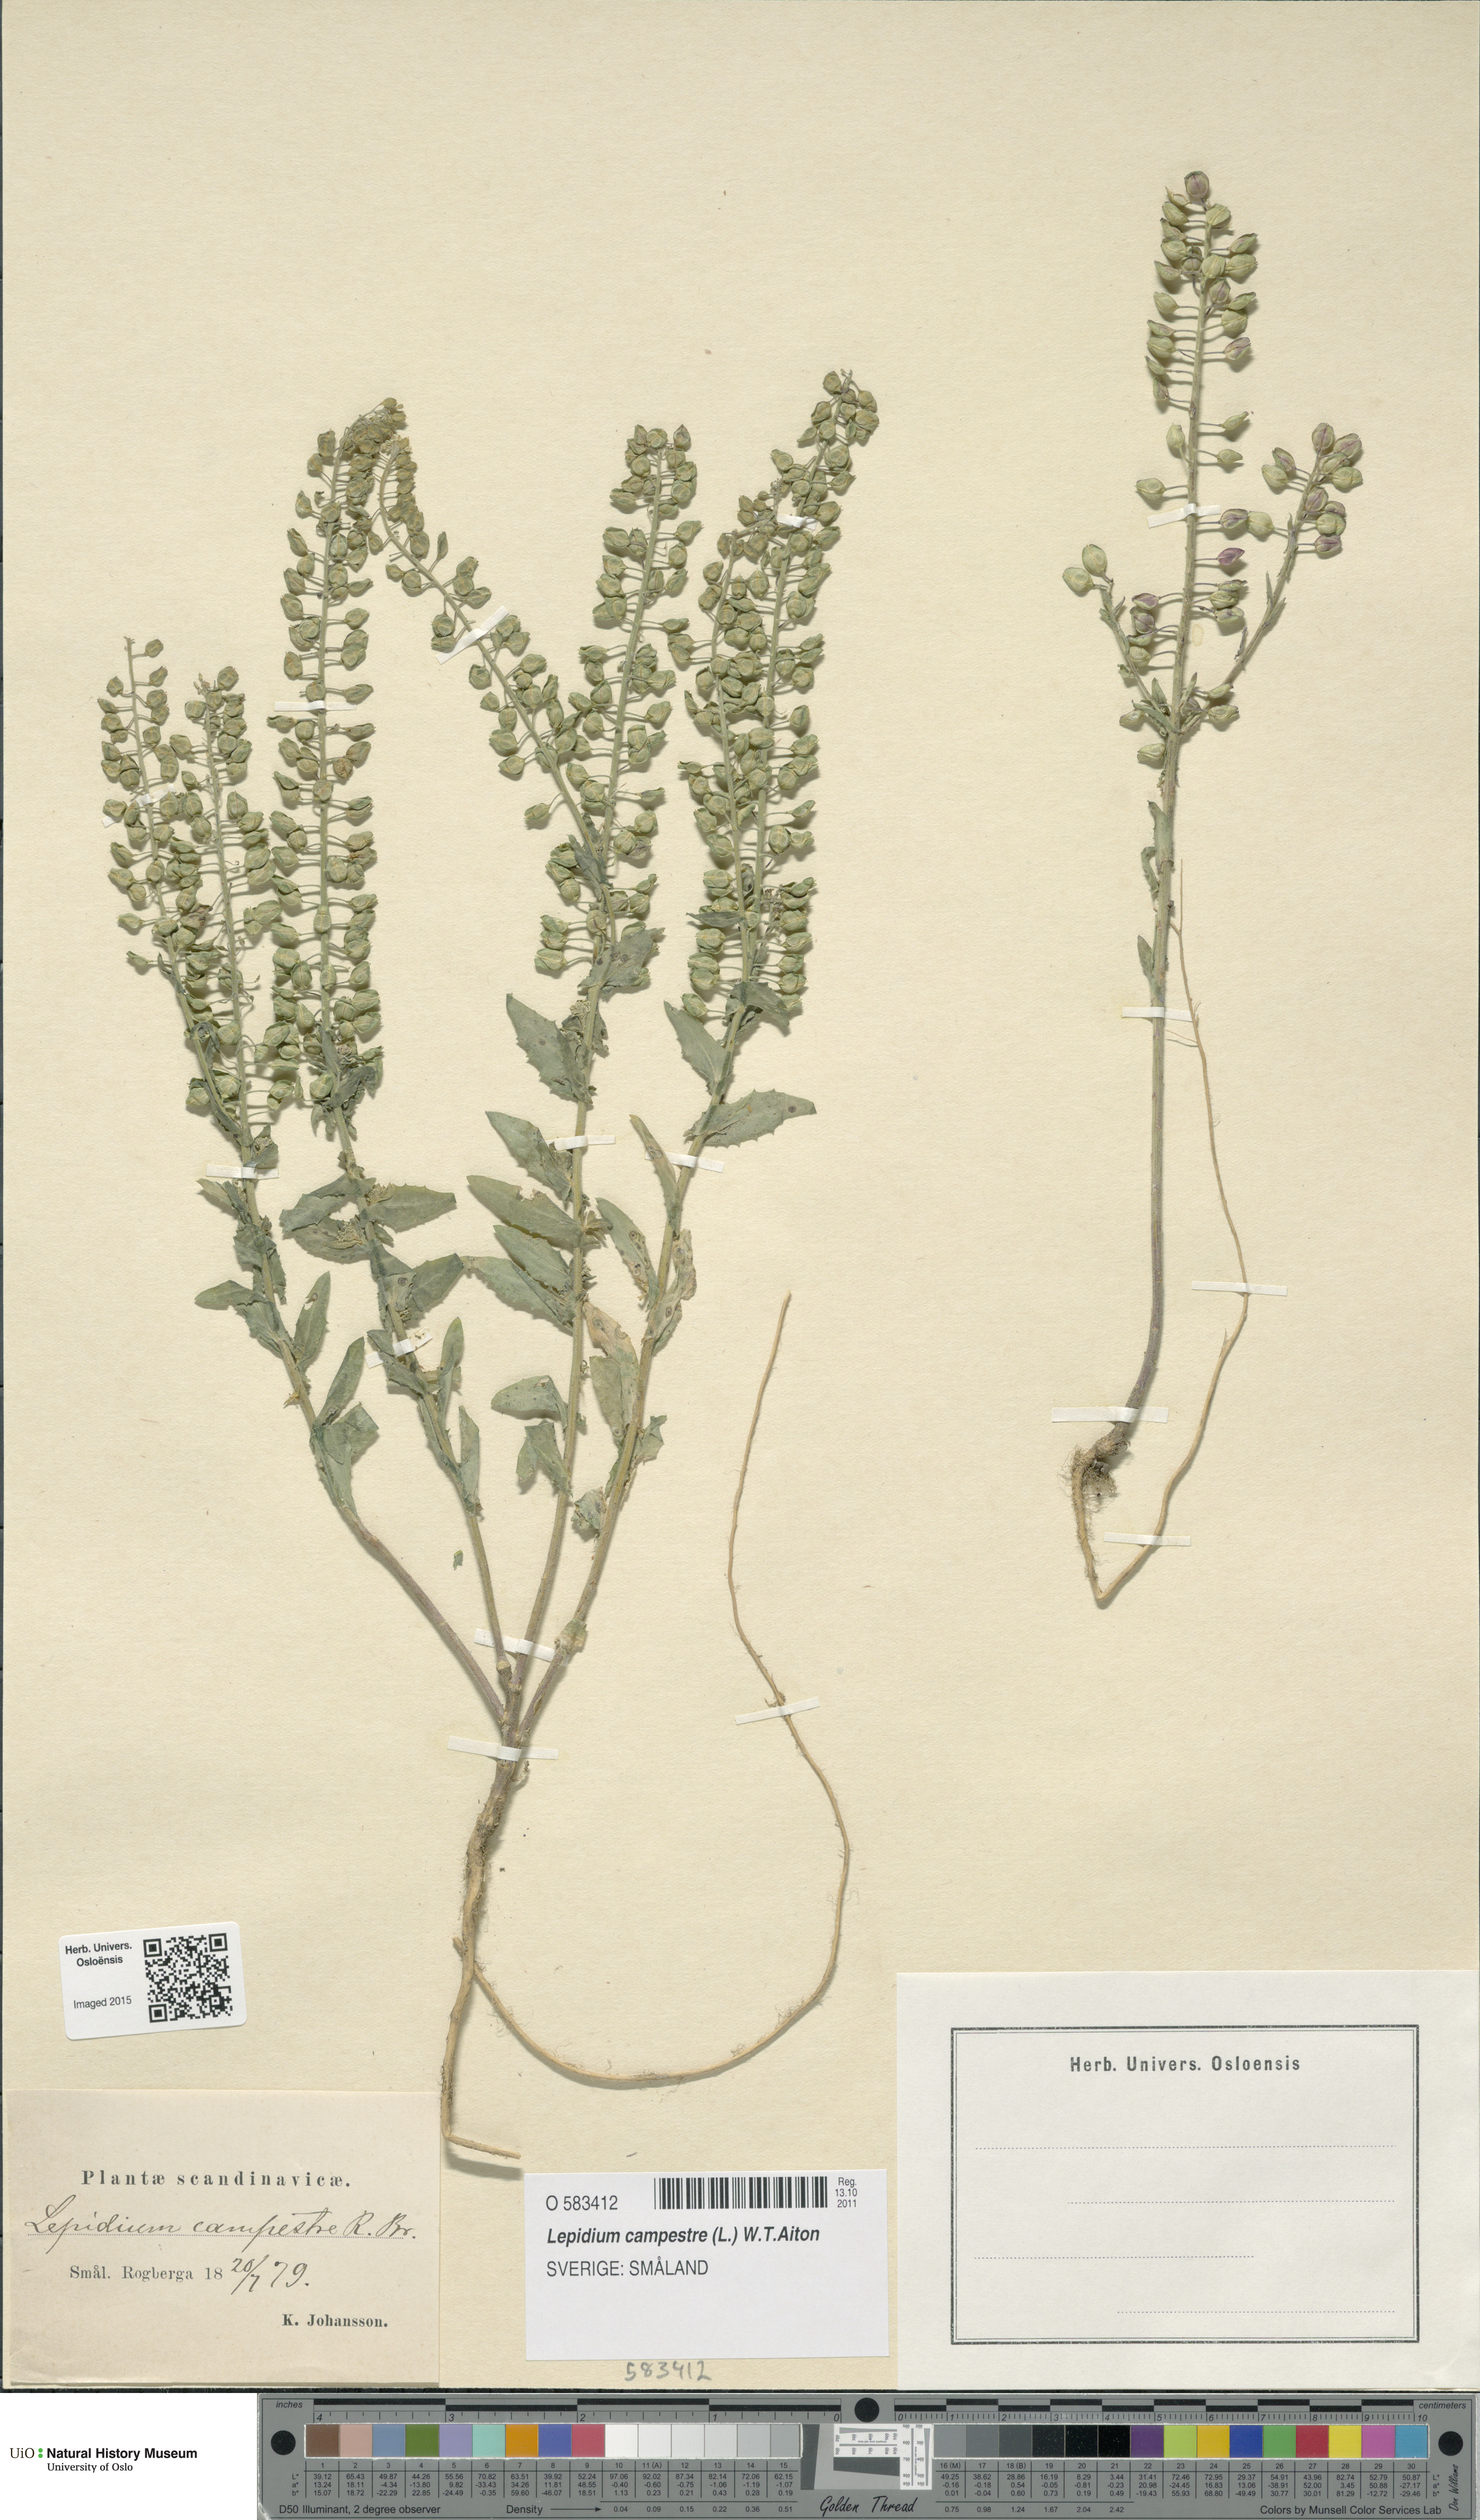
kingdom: Plantae
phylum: Tracheophyta
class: Magnoliopsida
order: Brassicales
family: Brassicaceae
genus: Lepidium
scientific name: Lepidium campestre
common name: Field pepperwort
